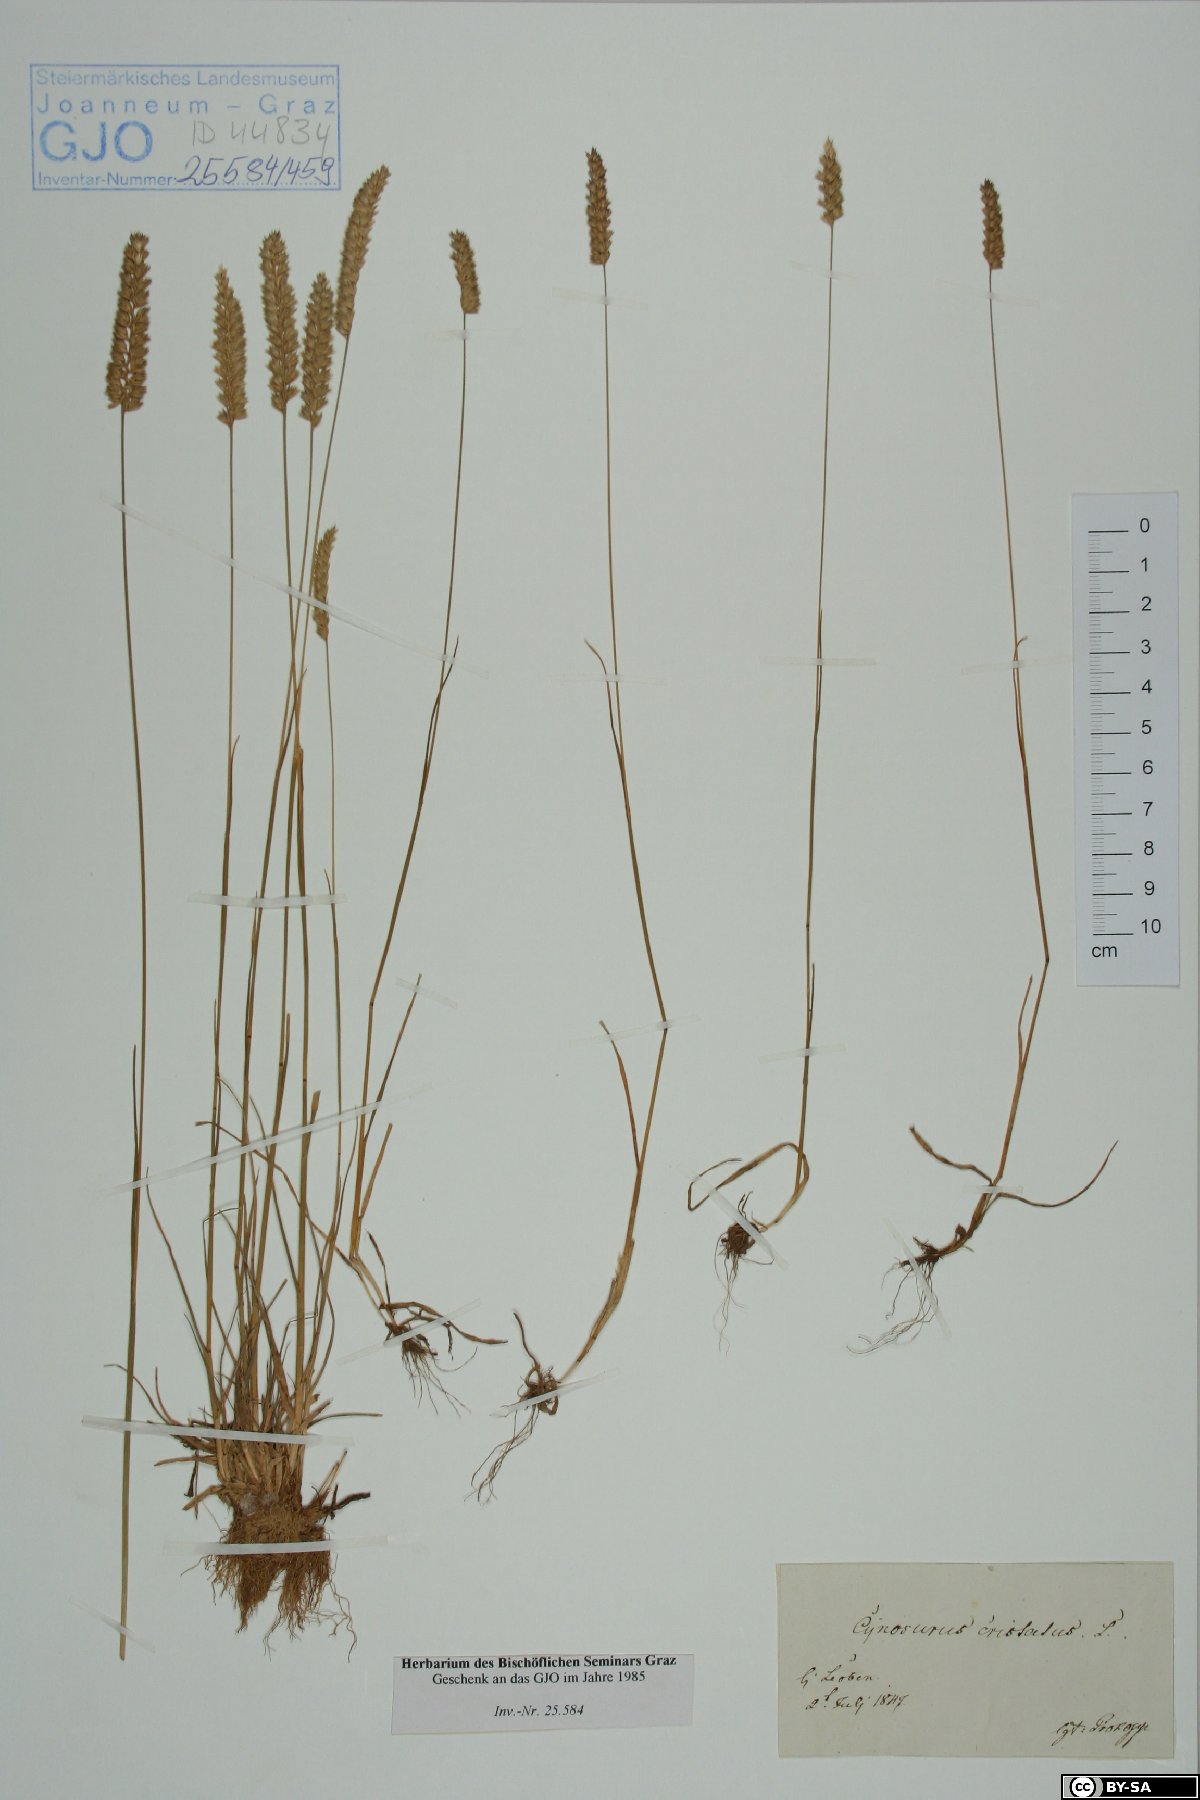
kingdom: Plantae
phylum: Tracheophyta
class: Liliopsida
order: Poales
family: Poaceae
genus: Cynosurus
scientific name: Cynosurus cristatus
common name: Crested dog's-tail
